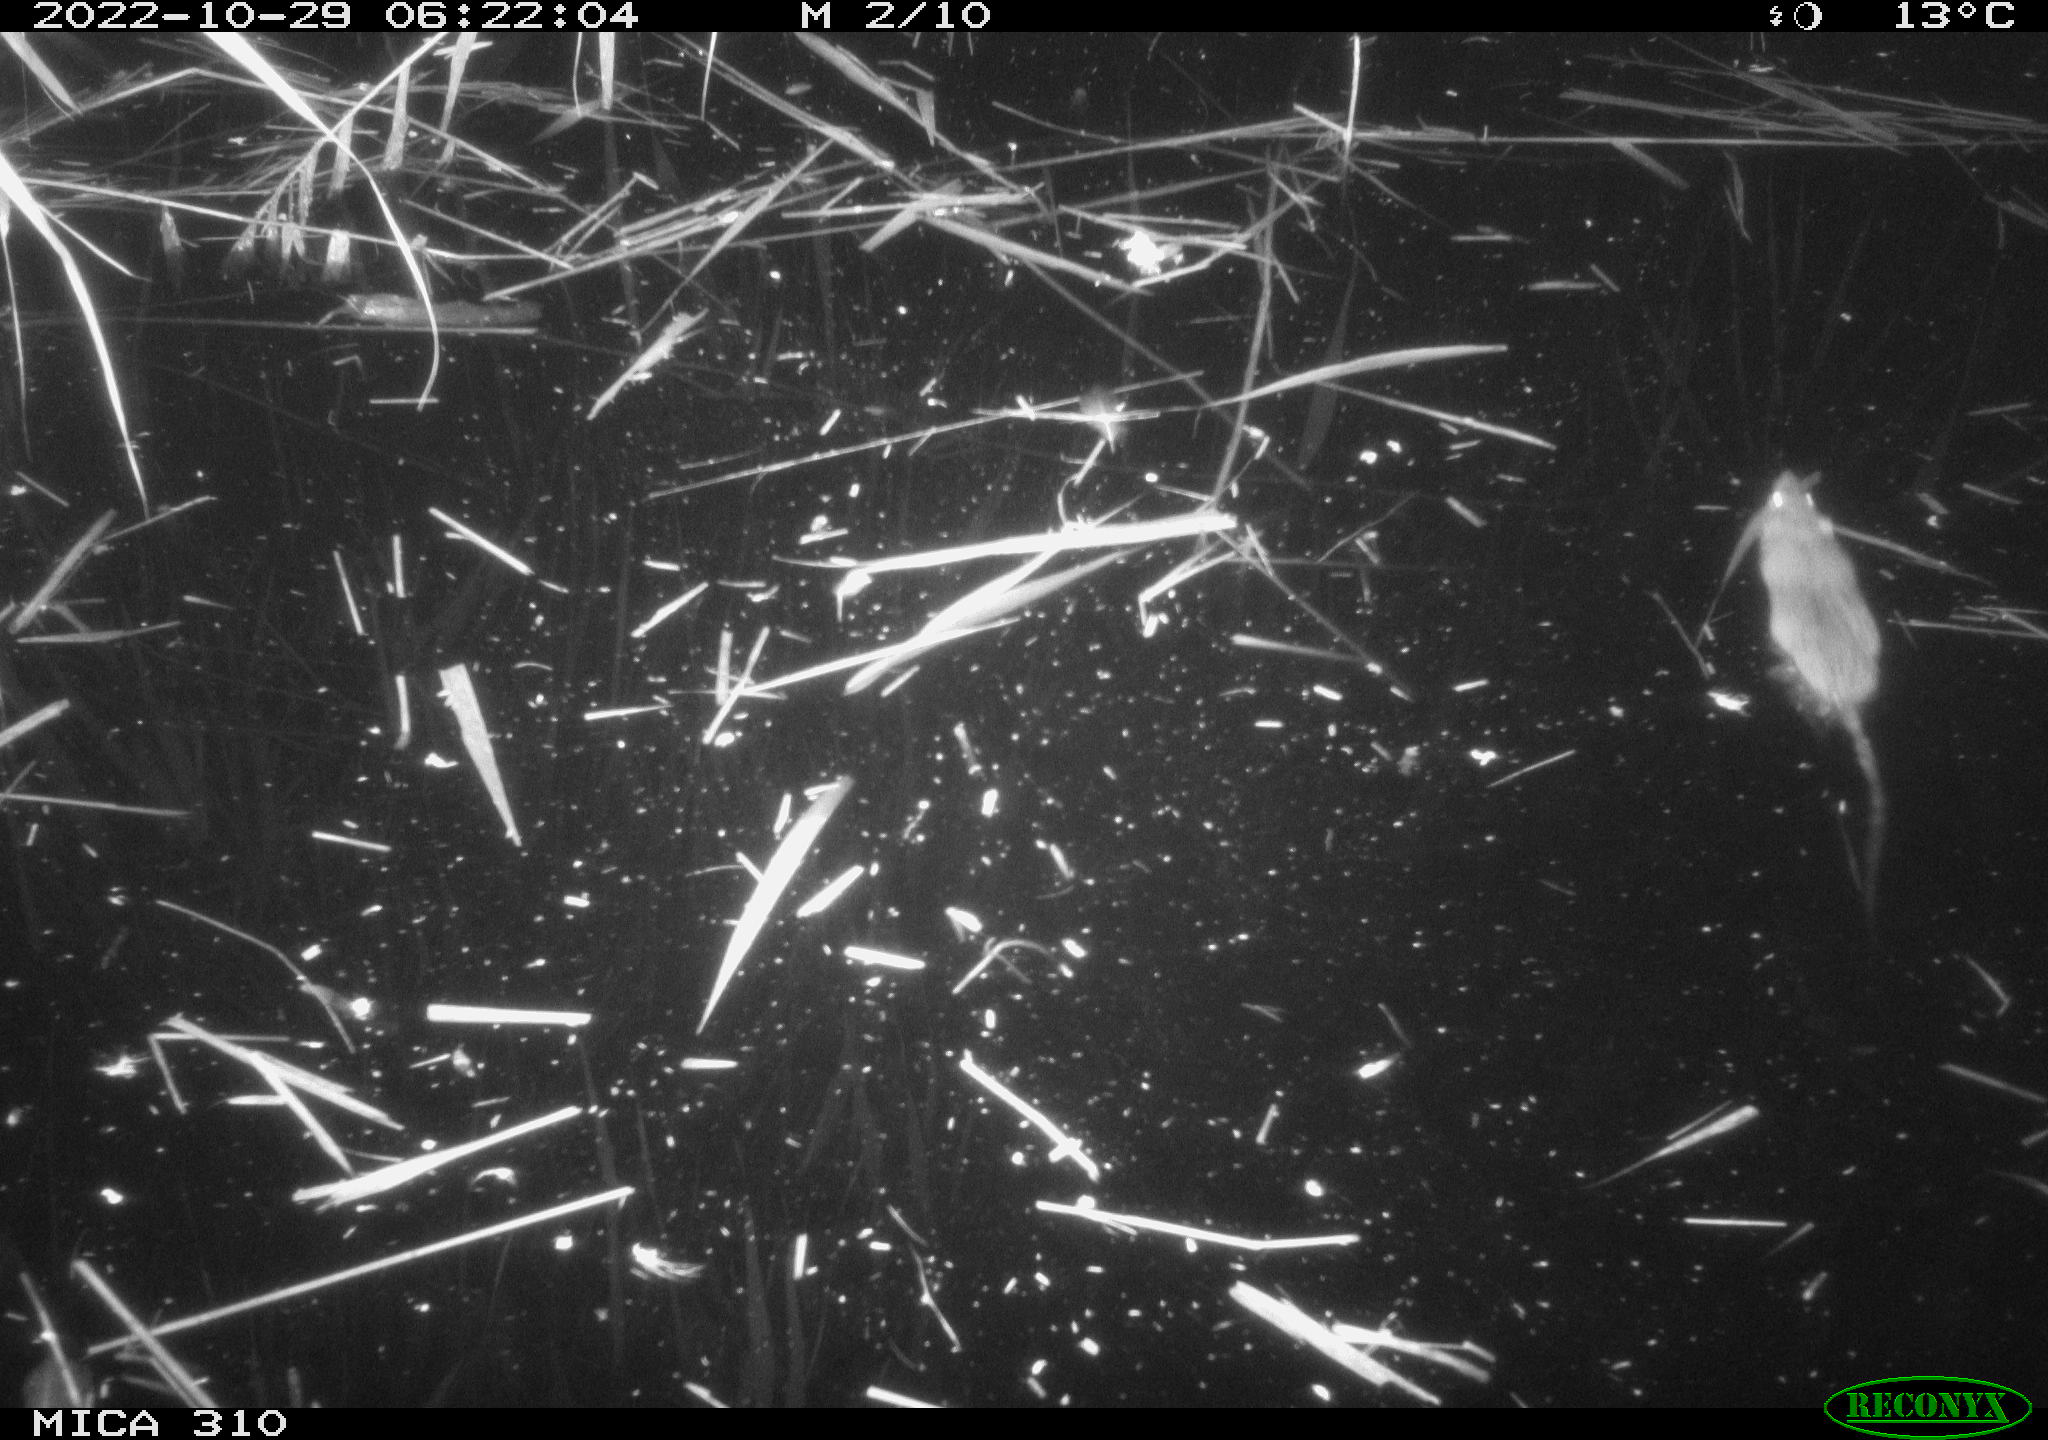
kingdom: Animalia
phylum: Chordata
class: Mammalia
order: Rodentia
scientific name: Rodentia
